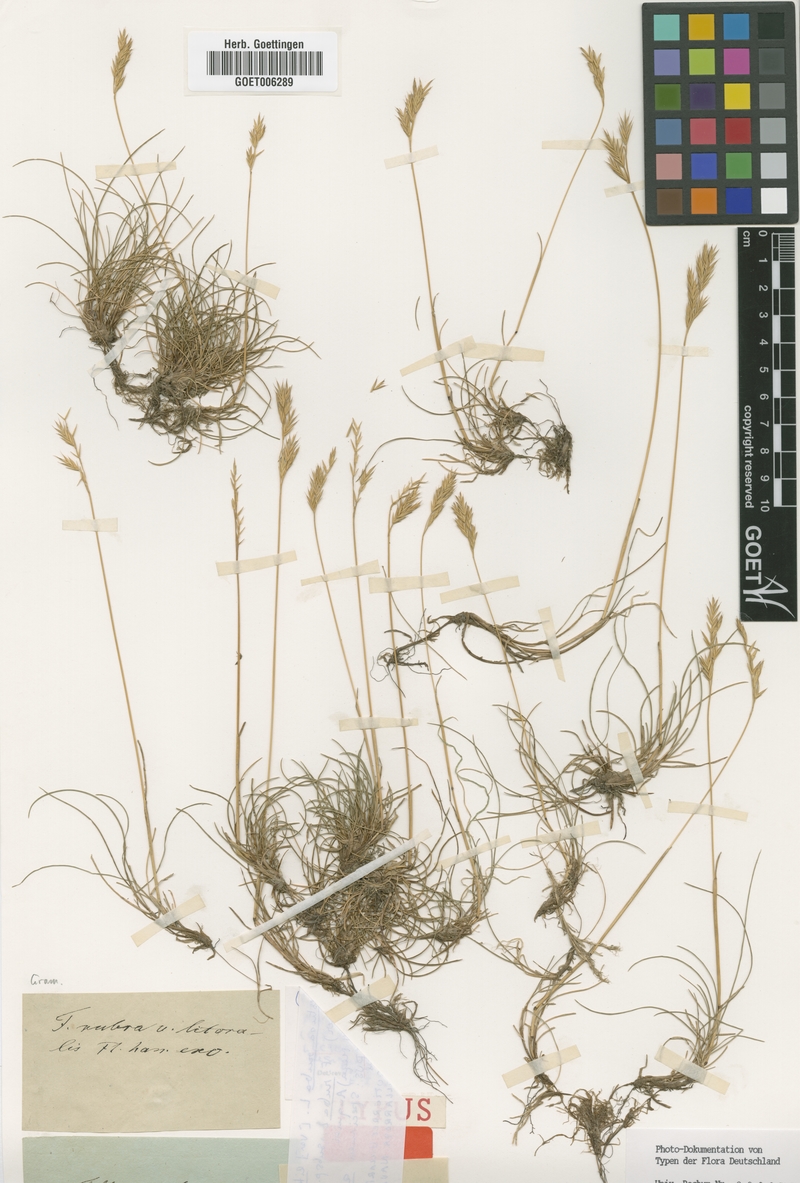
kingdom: Plantae
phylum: Tracheophyta
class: Liliopsida
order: Poales
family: Poaceae
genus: Festuca
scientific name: Festuca rubra
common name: Red fescue
